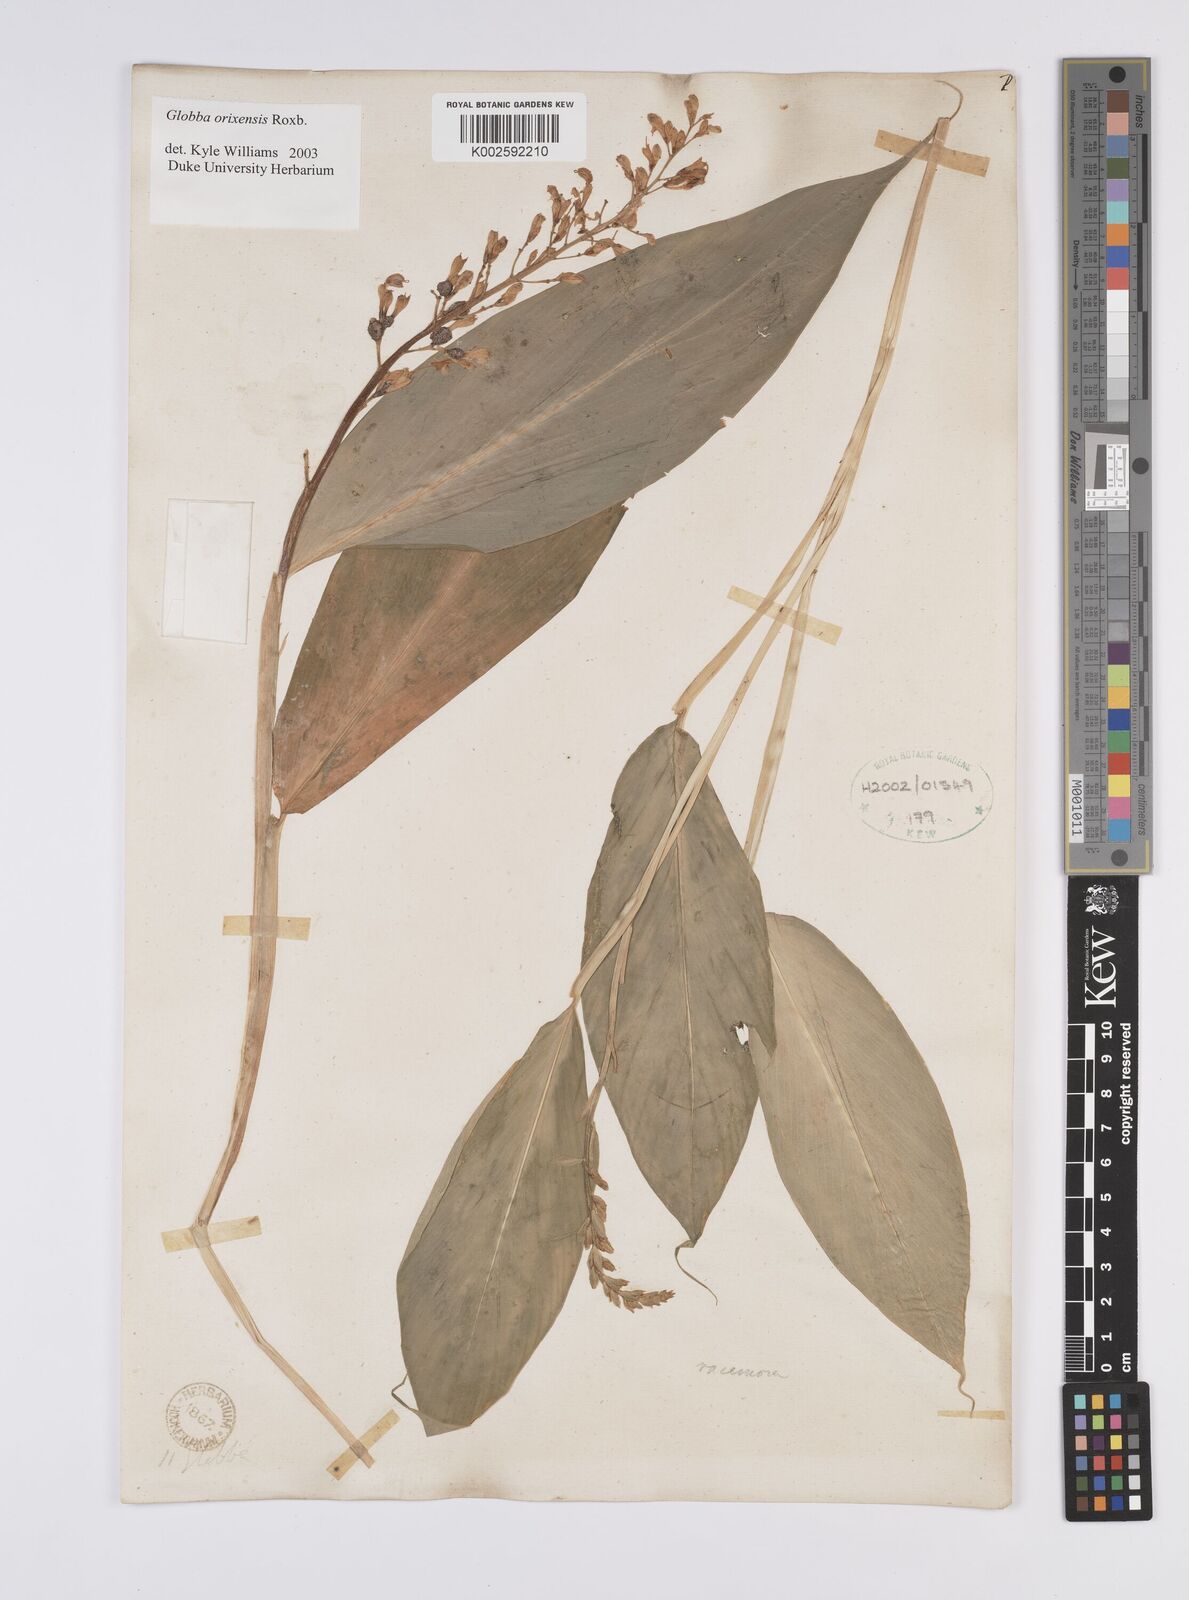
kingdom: Plantae
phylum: Tracheophyta
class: Liliopsida
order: Zingiberales
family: Zingiberaceae
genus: Globba
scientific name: Globba orixensis
